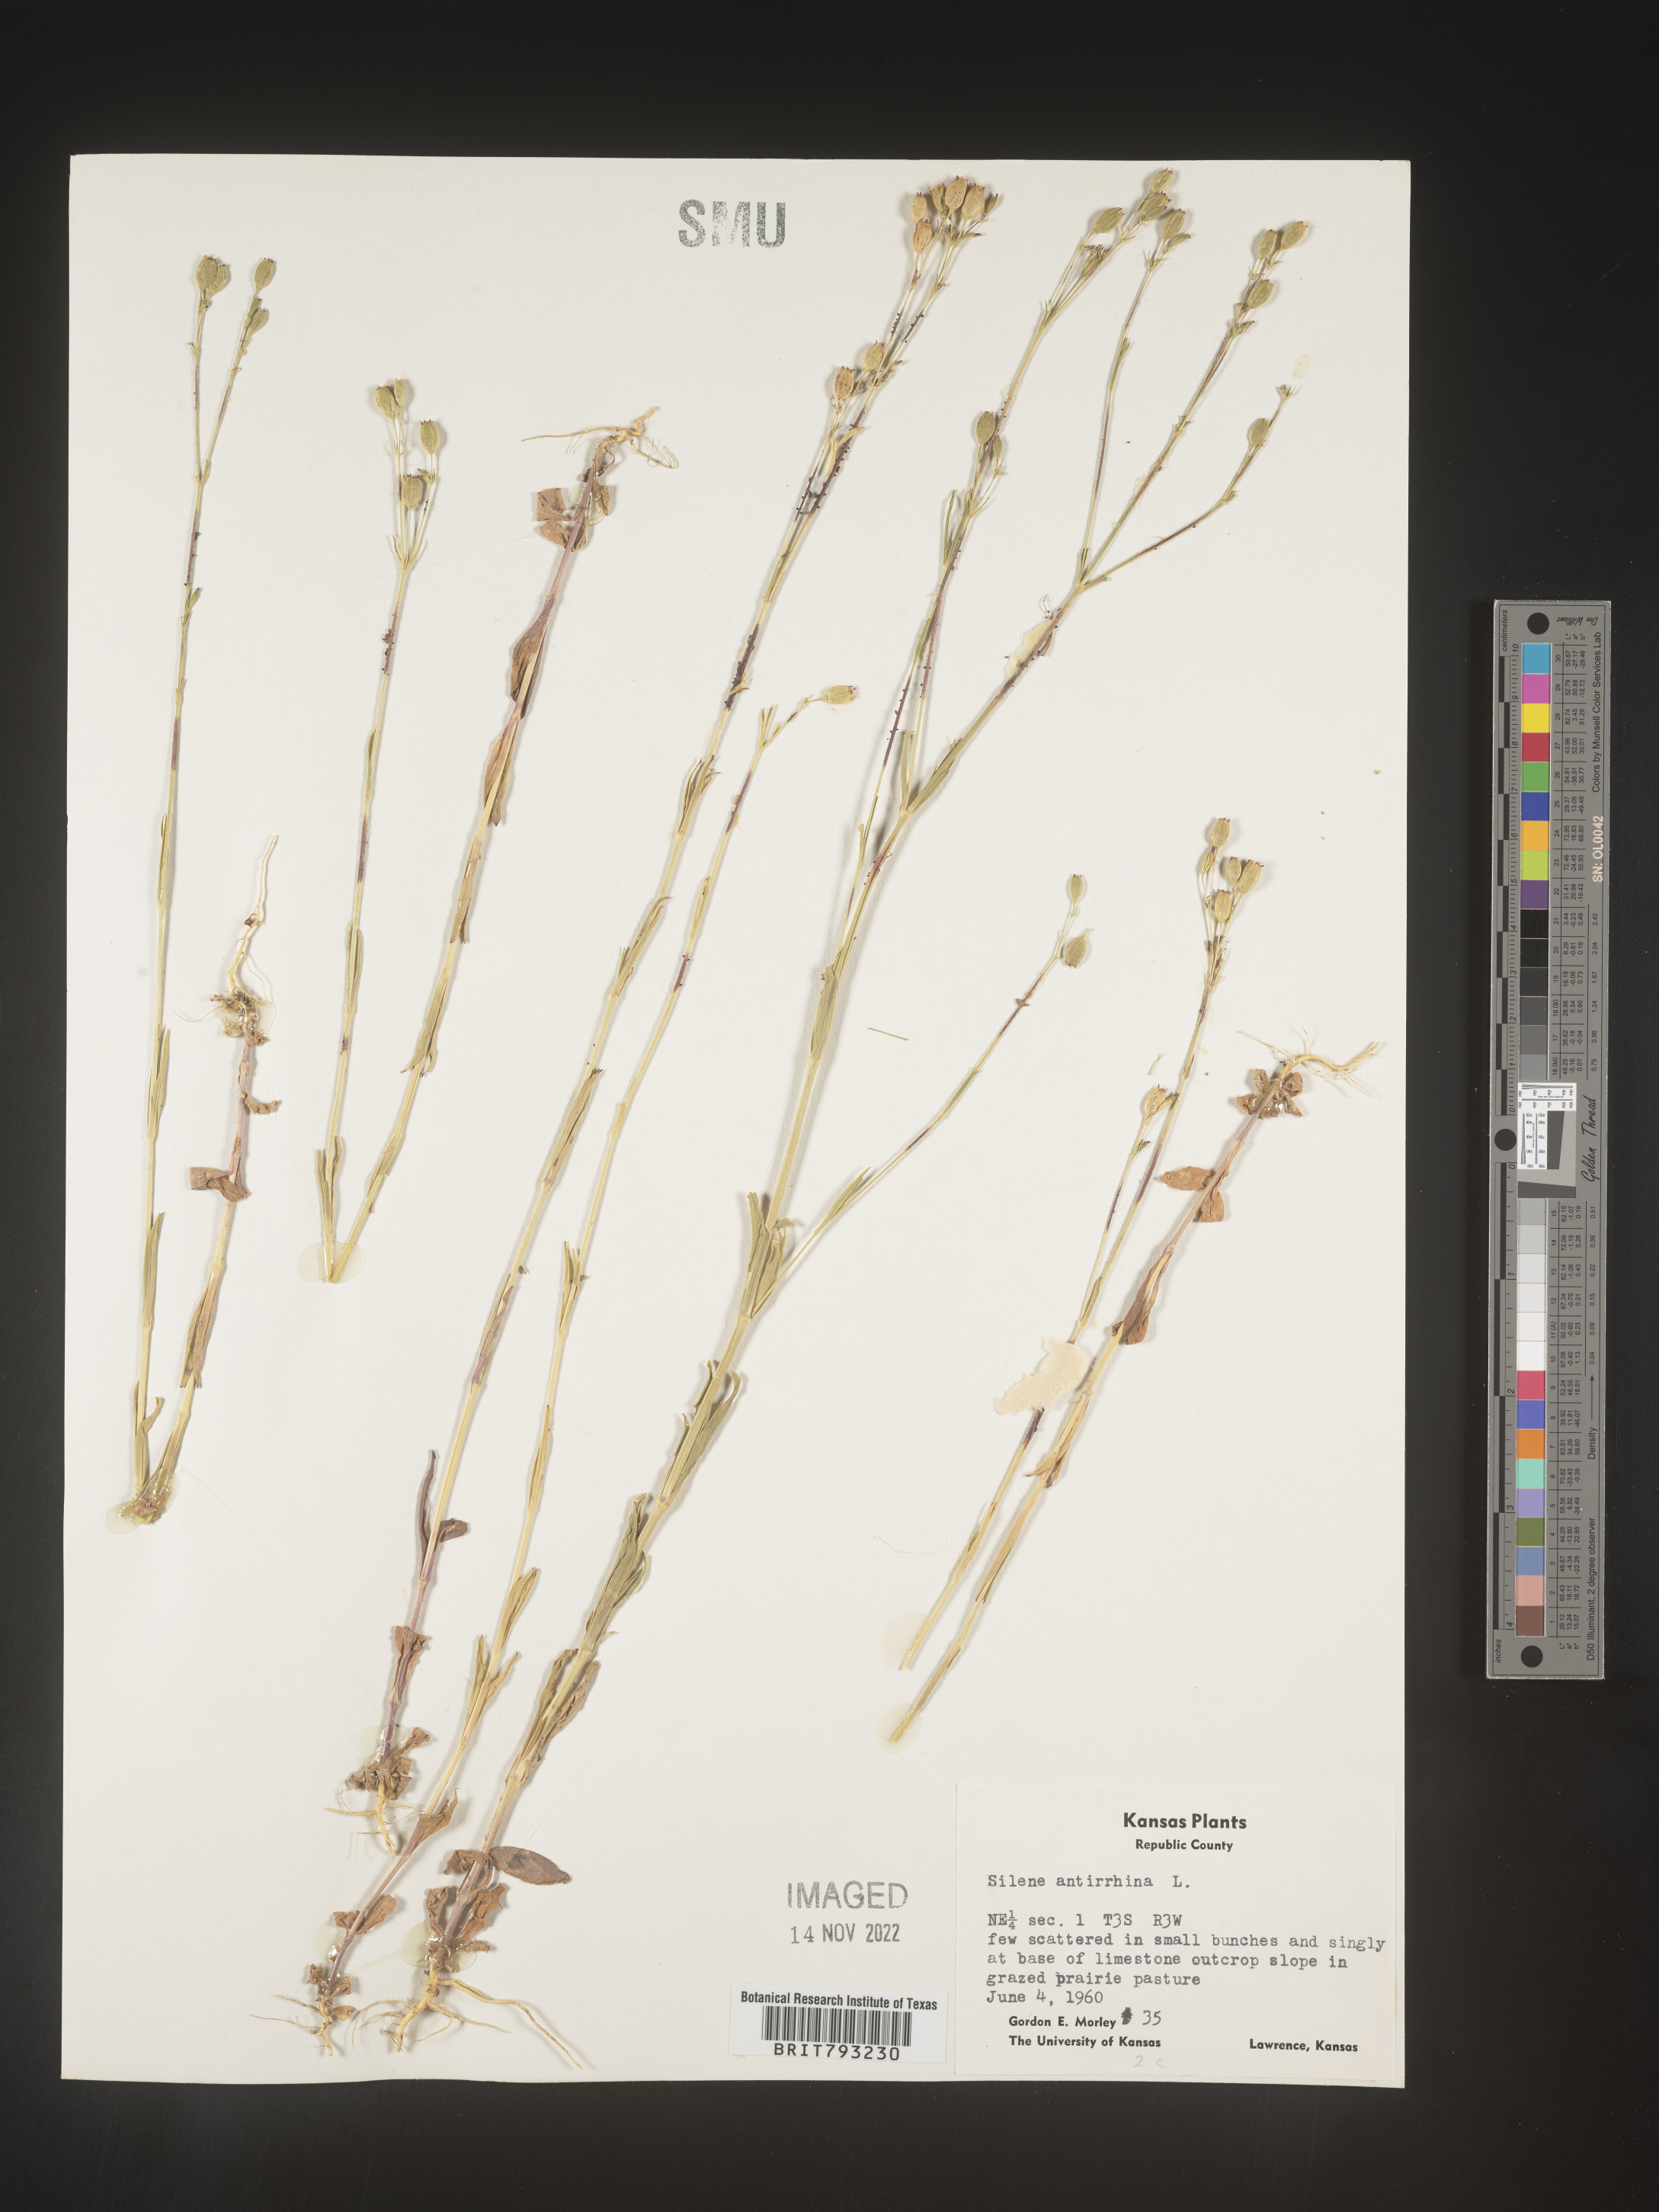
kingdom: Plantae
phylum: Tracheophyta
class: Magnoliopsida
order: Caryophyllales
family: Caryophyllaceae
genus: Silene
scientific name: Silene antirrhina
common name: Sleepy catchfly
